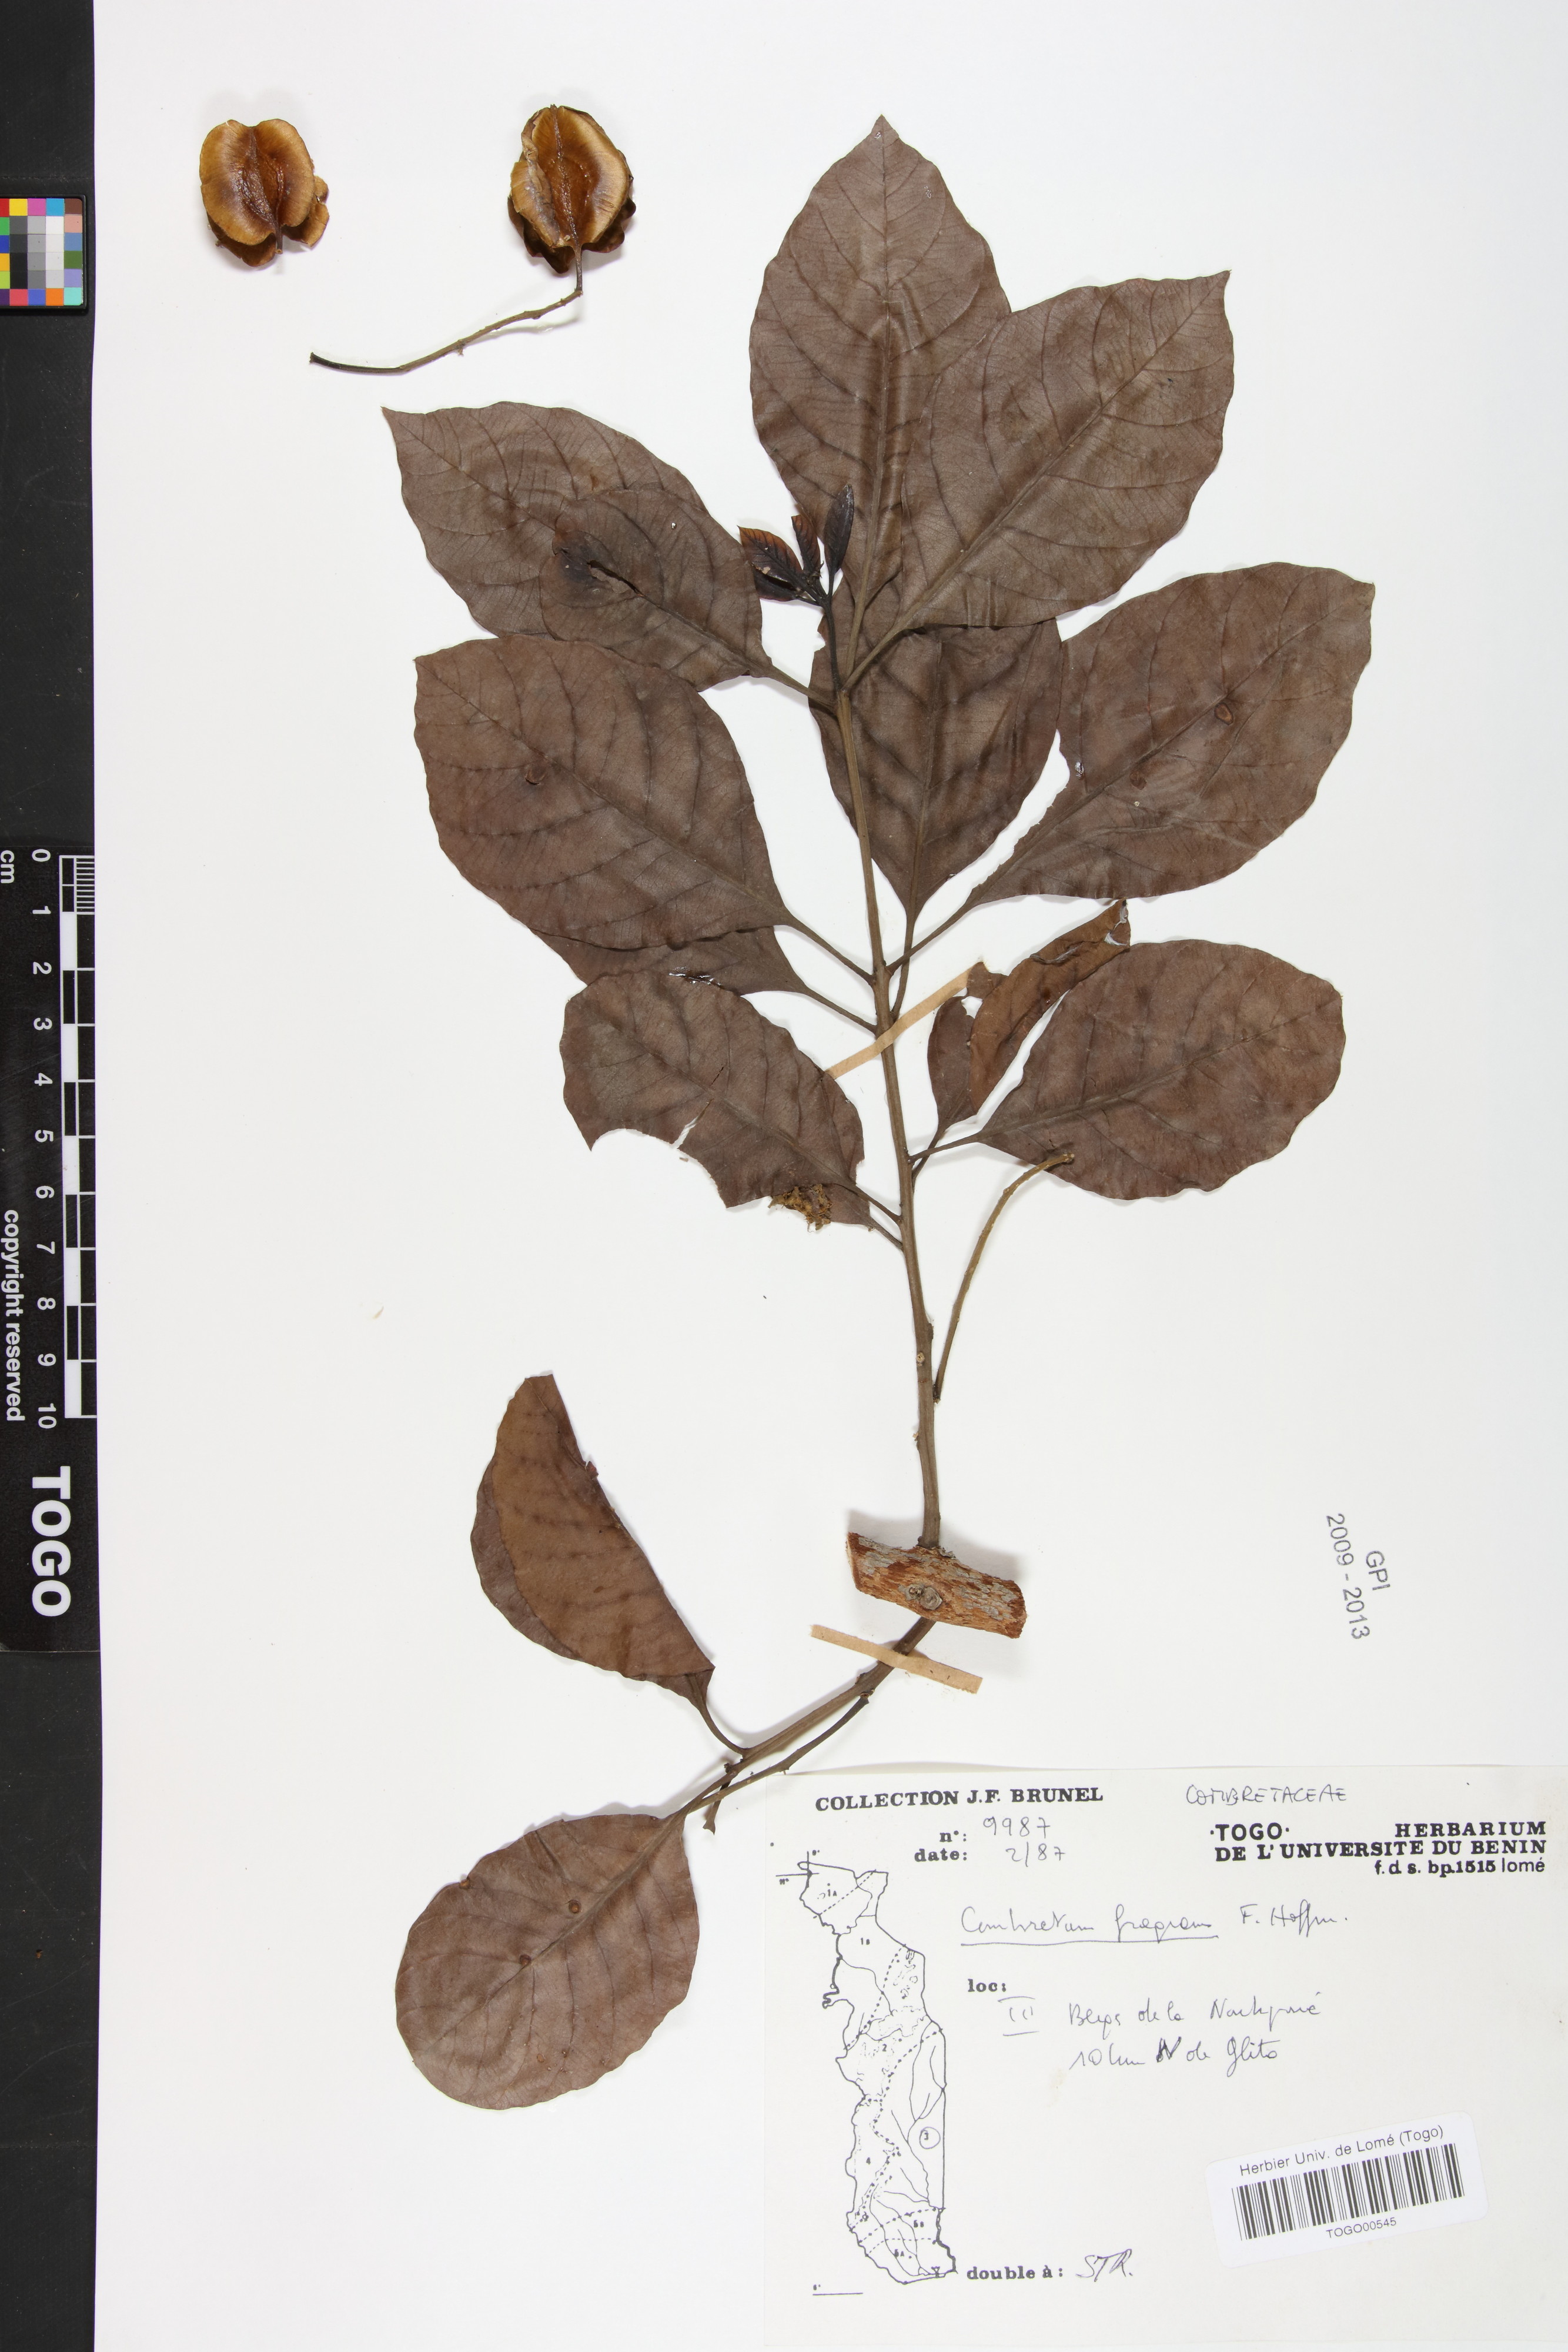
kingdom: Plantae
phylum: Tracheophyta
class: Magnoliopsida
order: Myrtales
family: Combretaceae
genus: Combretum
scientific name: Combretum adenogonium
